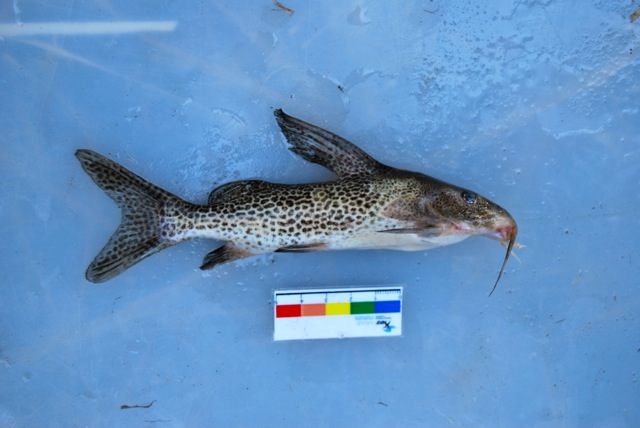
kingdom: Animalia
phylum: Chordata
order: Siluriformes
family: Mochokidae
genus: Synodontis
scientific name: Synodontis
